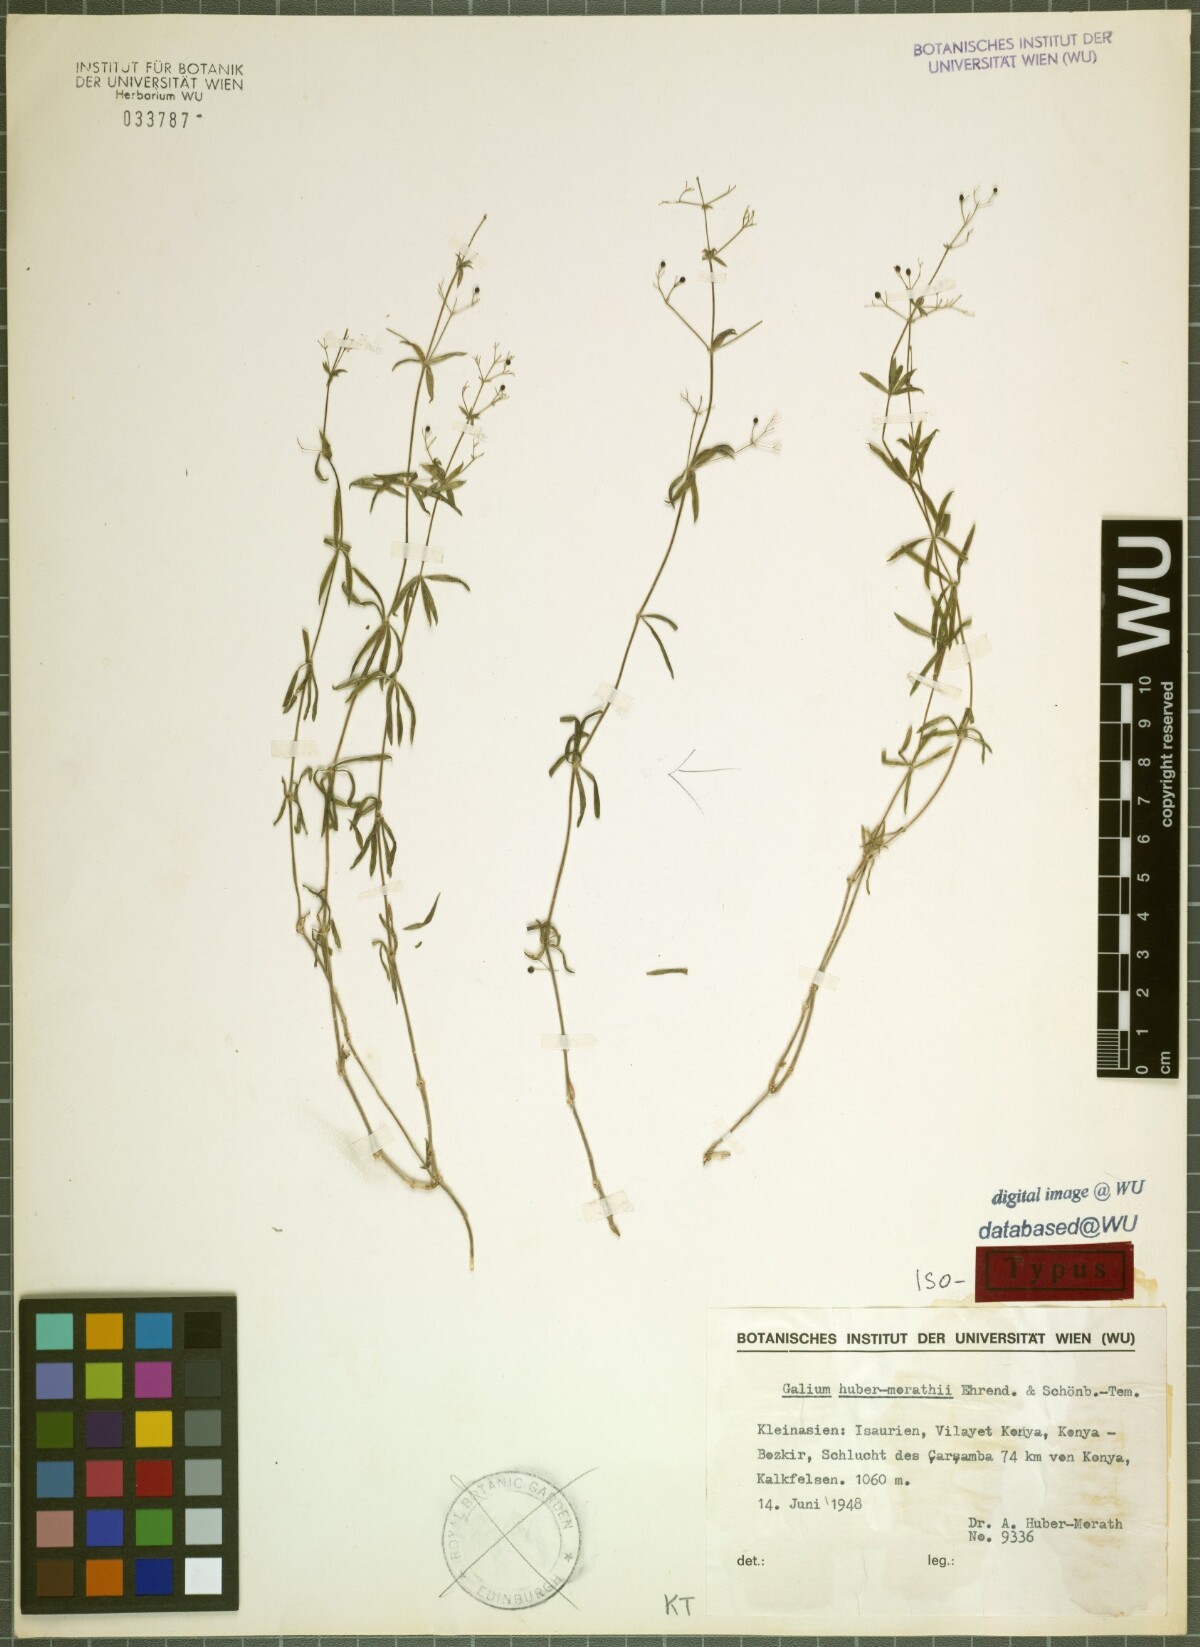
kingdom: Plantae
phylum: Tracheophyta
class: Magnoliopsida
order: Gentianales
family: Rubiaceae
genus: Galium
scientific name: Galium huber-morathii
